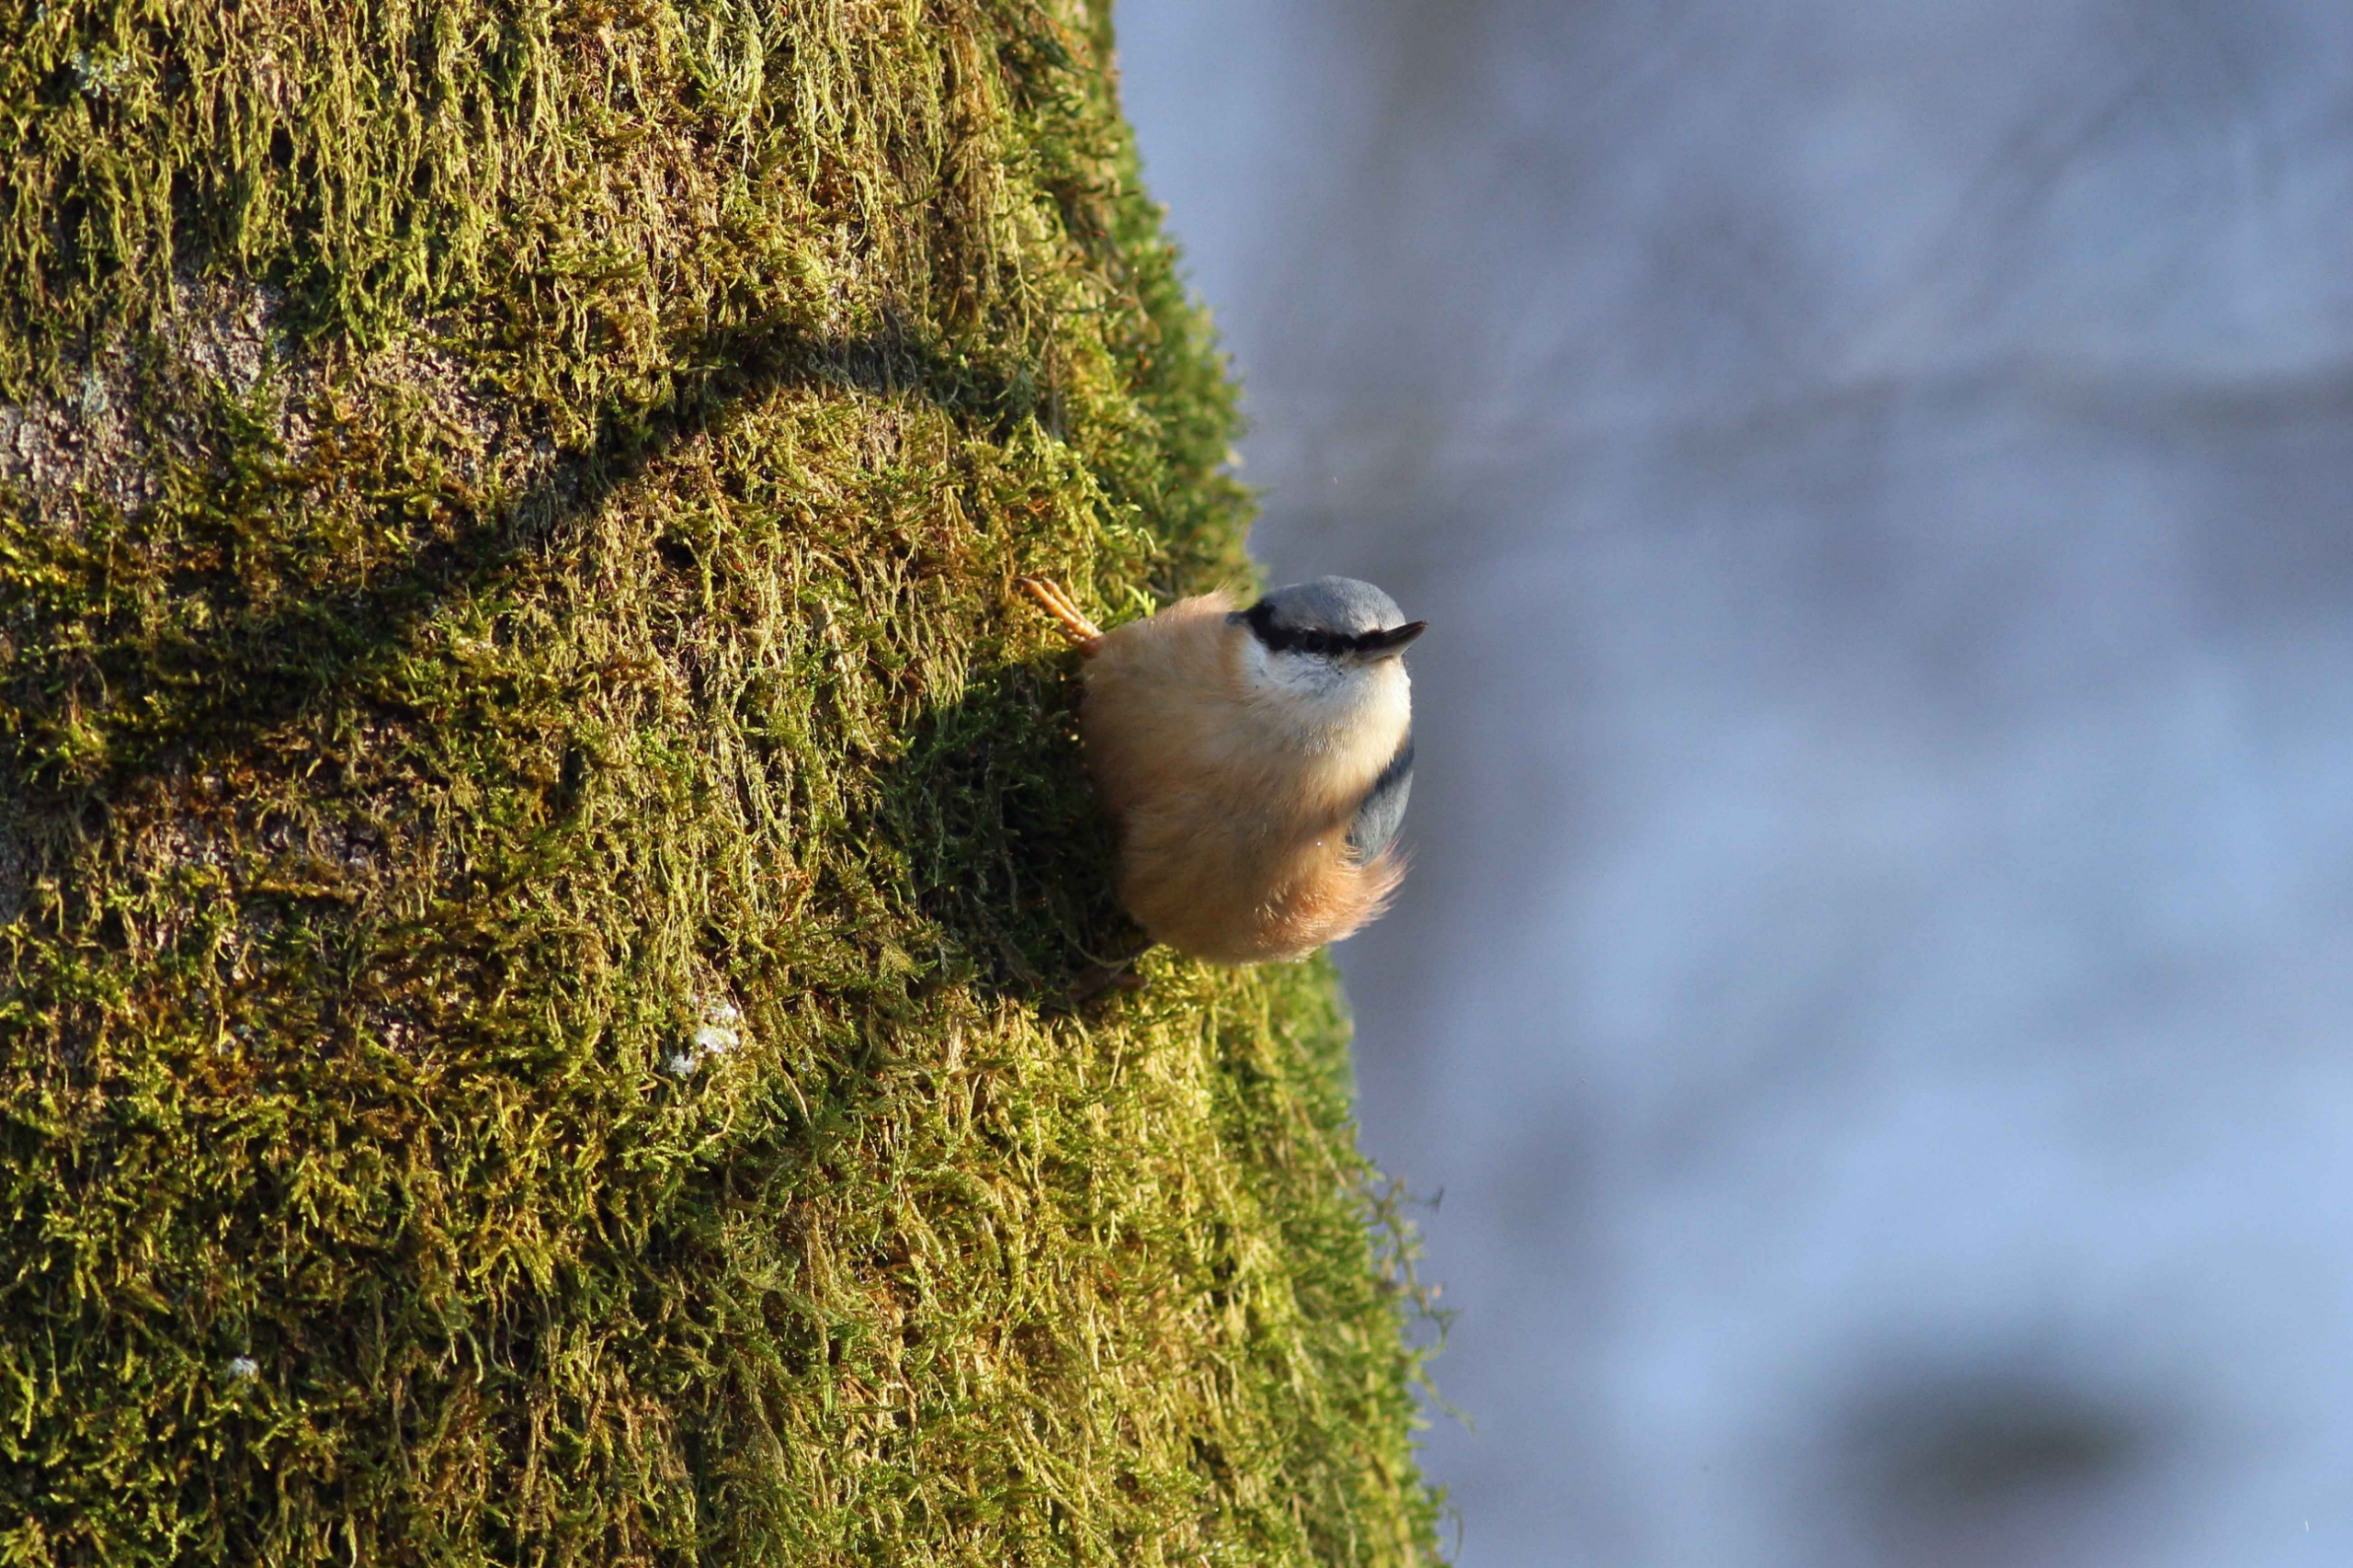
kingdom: Animalia
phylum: Chordata
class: Aves
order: Passeriformes
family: Sittidae
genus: Sitta
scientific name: Sitta europaea
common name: Spætmejse
